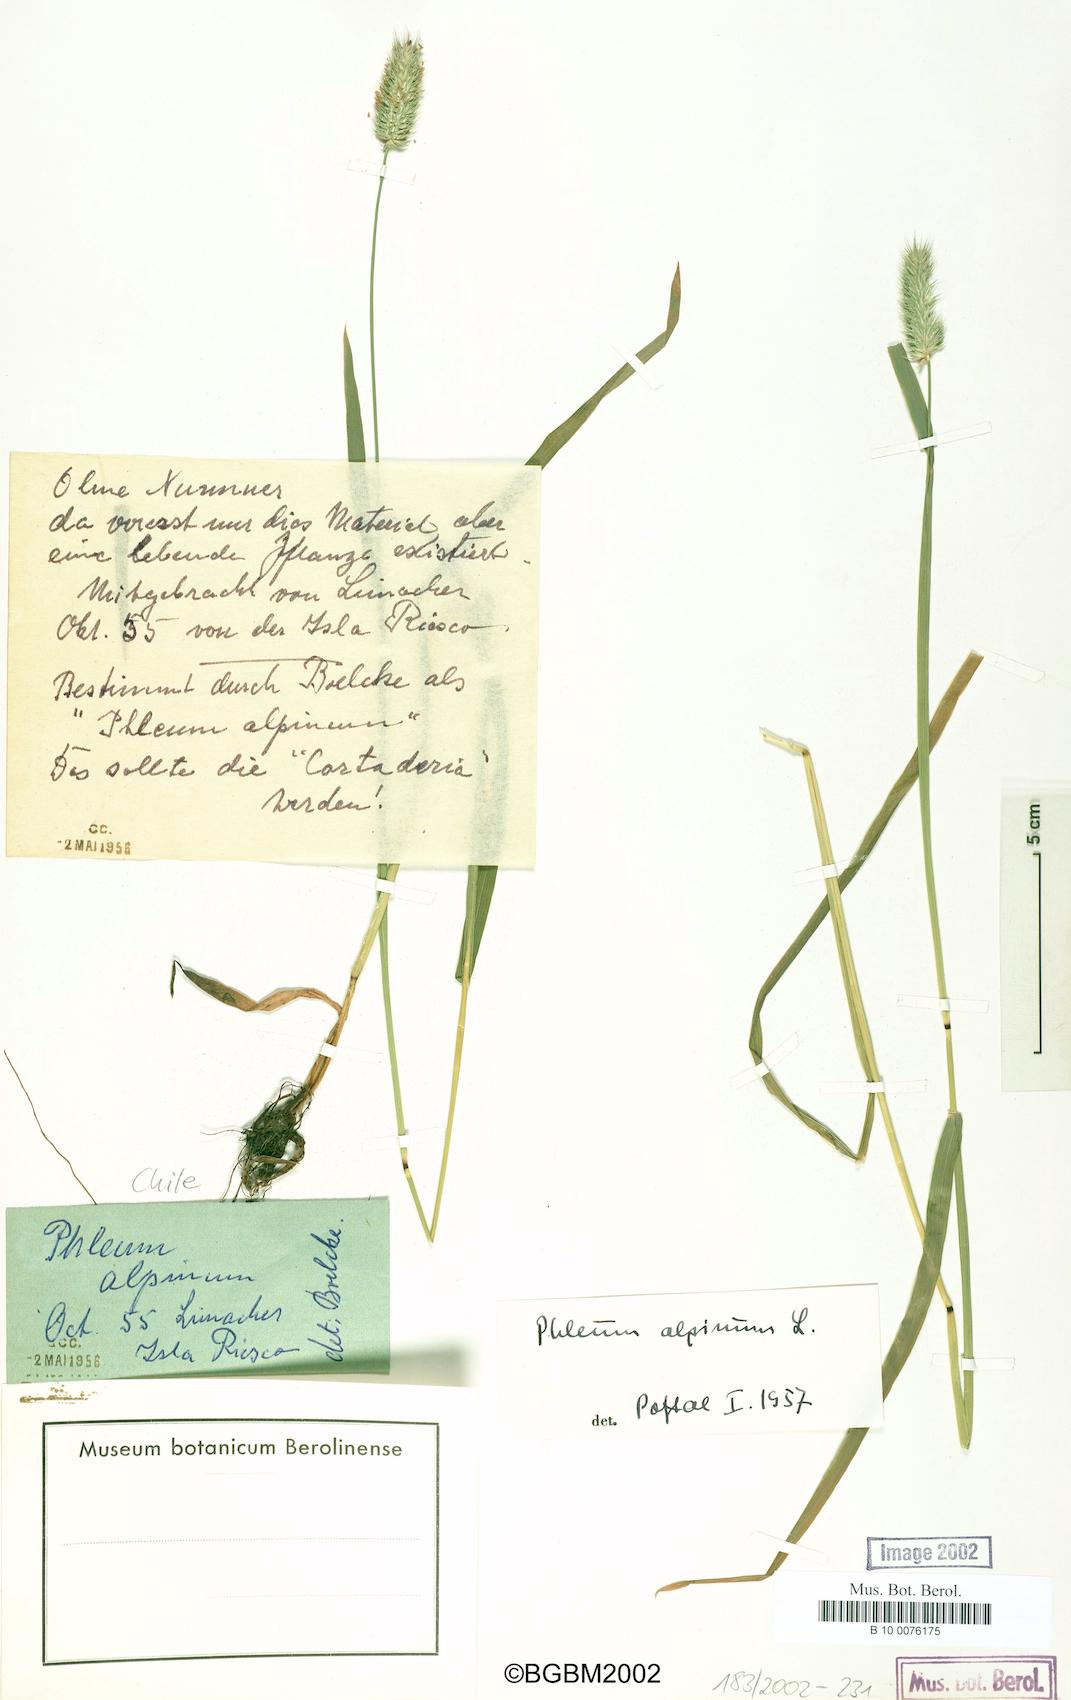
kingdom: Plantae
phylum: Tracheophyta
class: Liliopsida
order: Poales
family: Poaceae
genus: Phleum
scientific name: Phleum alpinum
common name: Alpine cat's-tail
